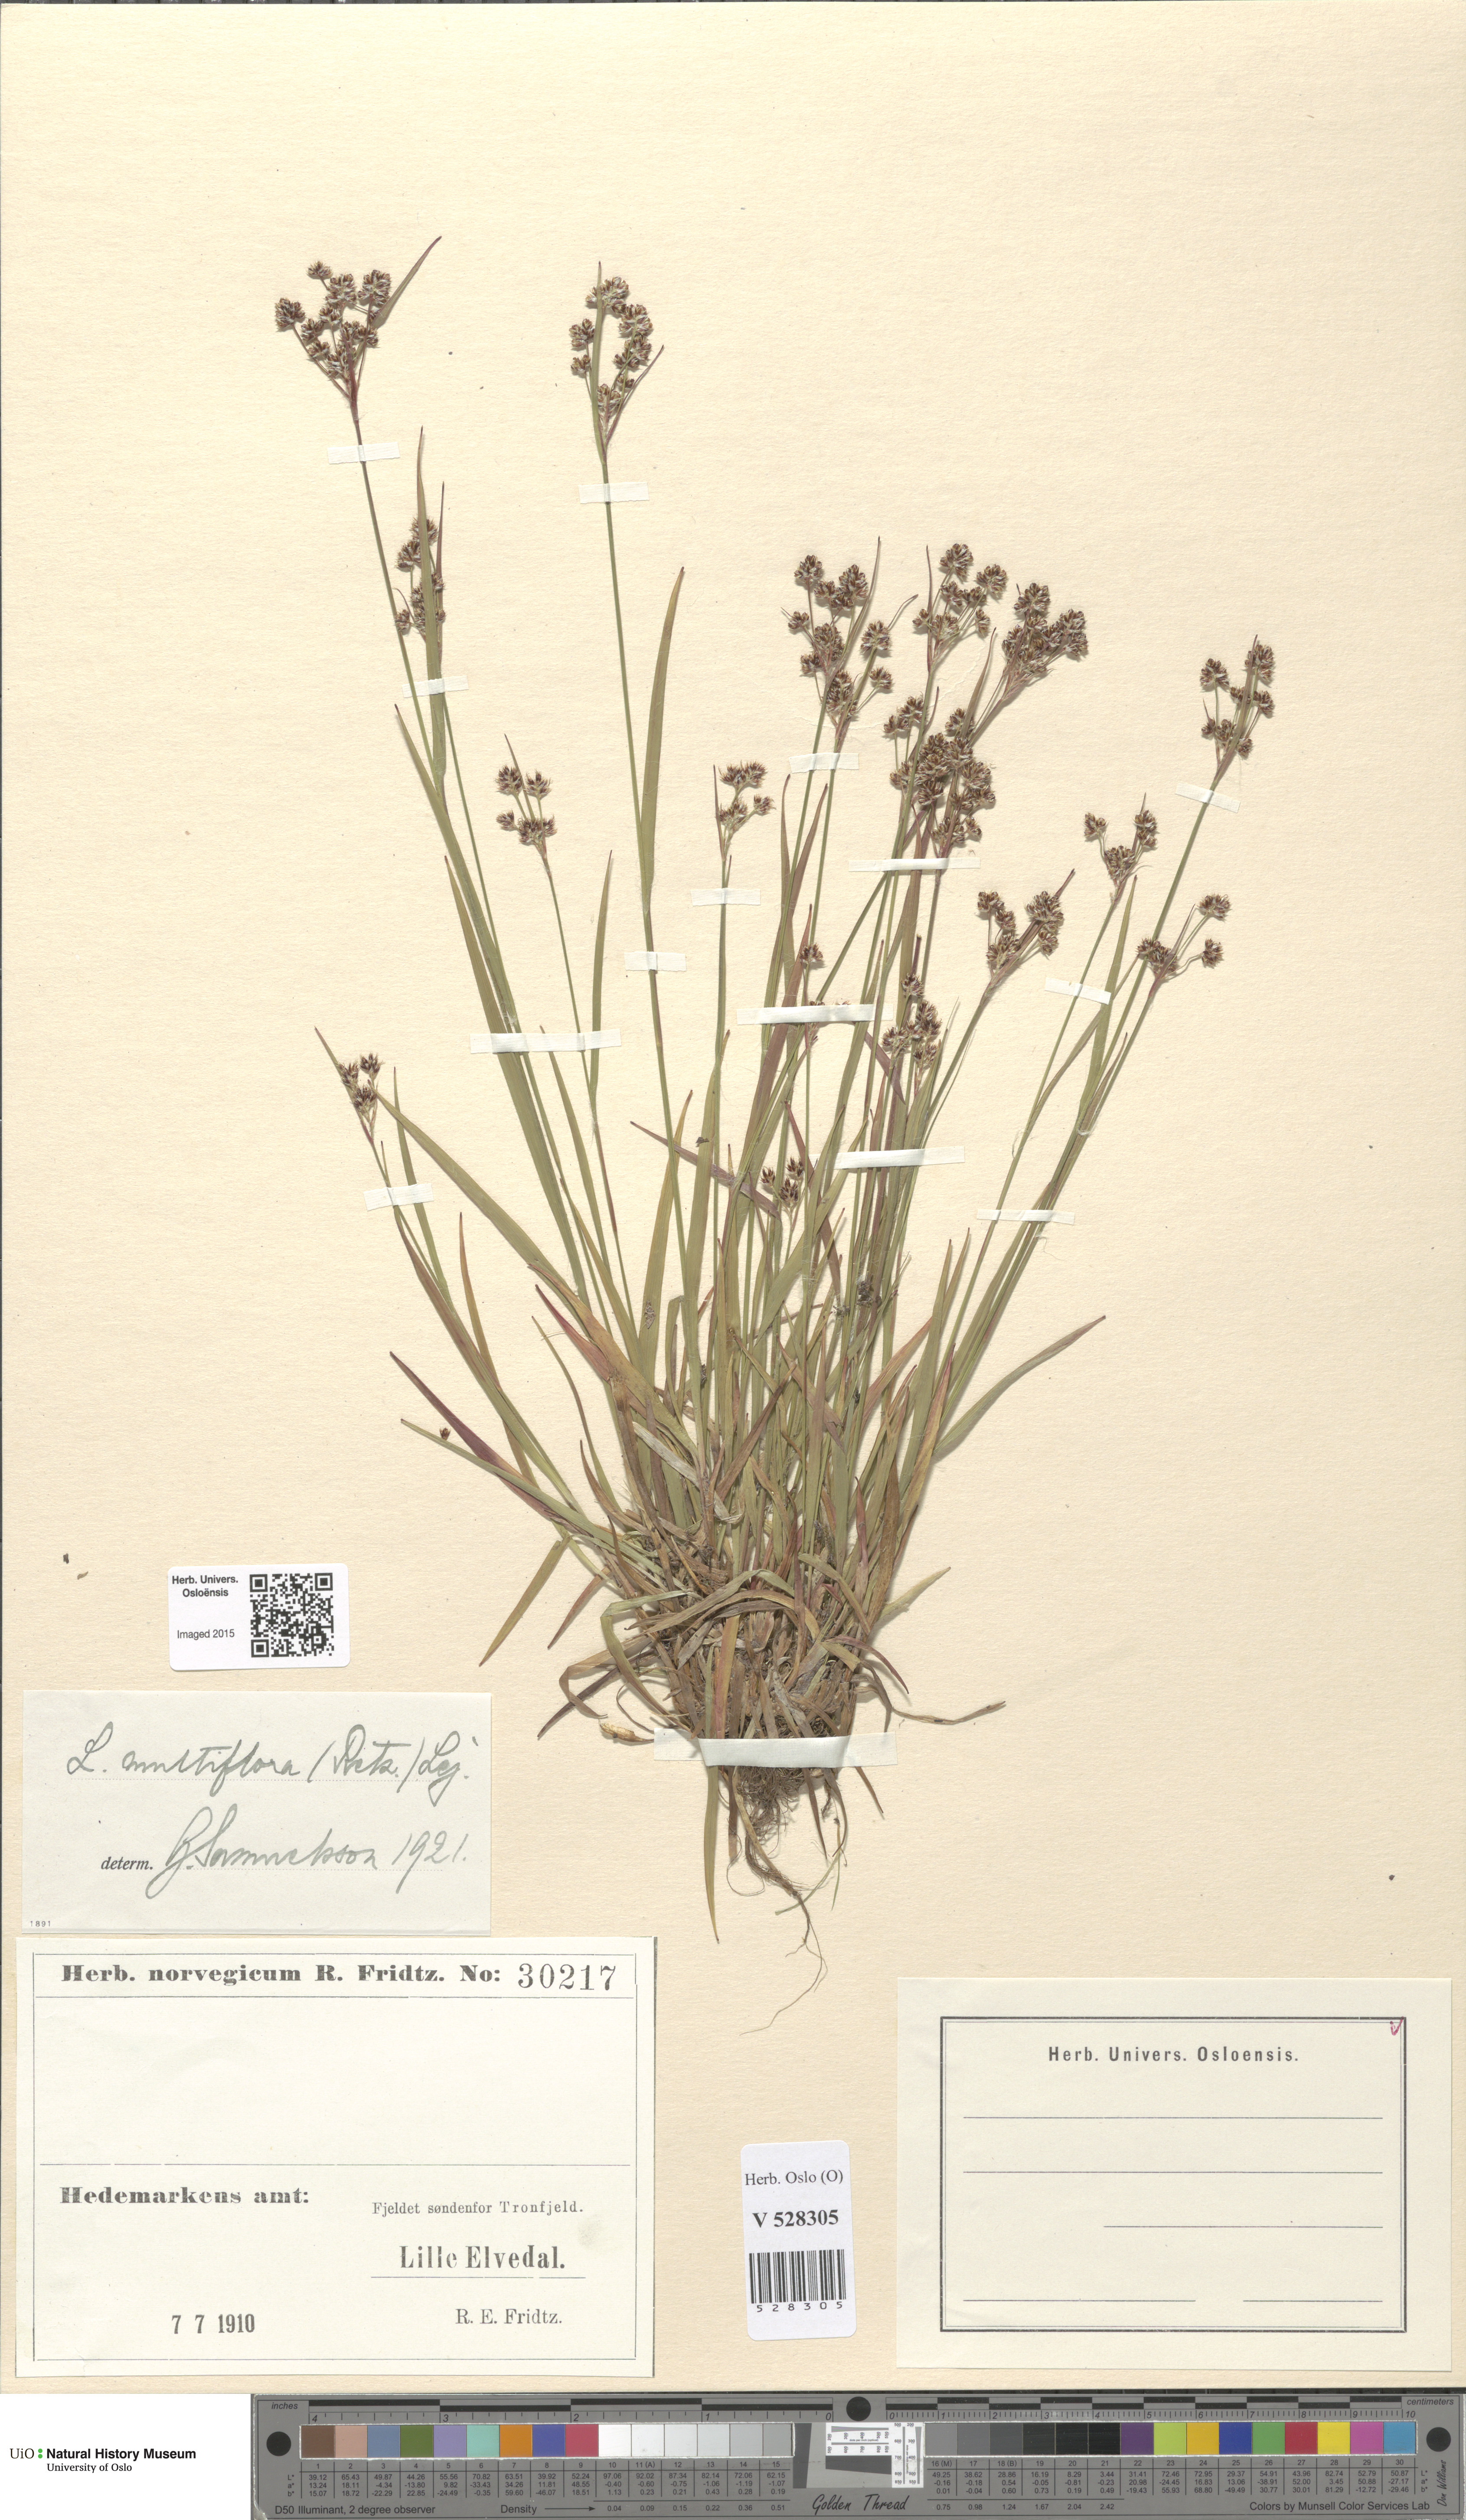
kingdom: Plantae
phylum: Tracheophyta
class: Liliopsida
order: Poales
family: Juncaceae
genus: Luzula
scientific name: Luzula multiflora
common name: Heath wood-rush
